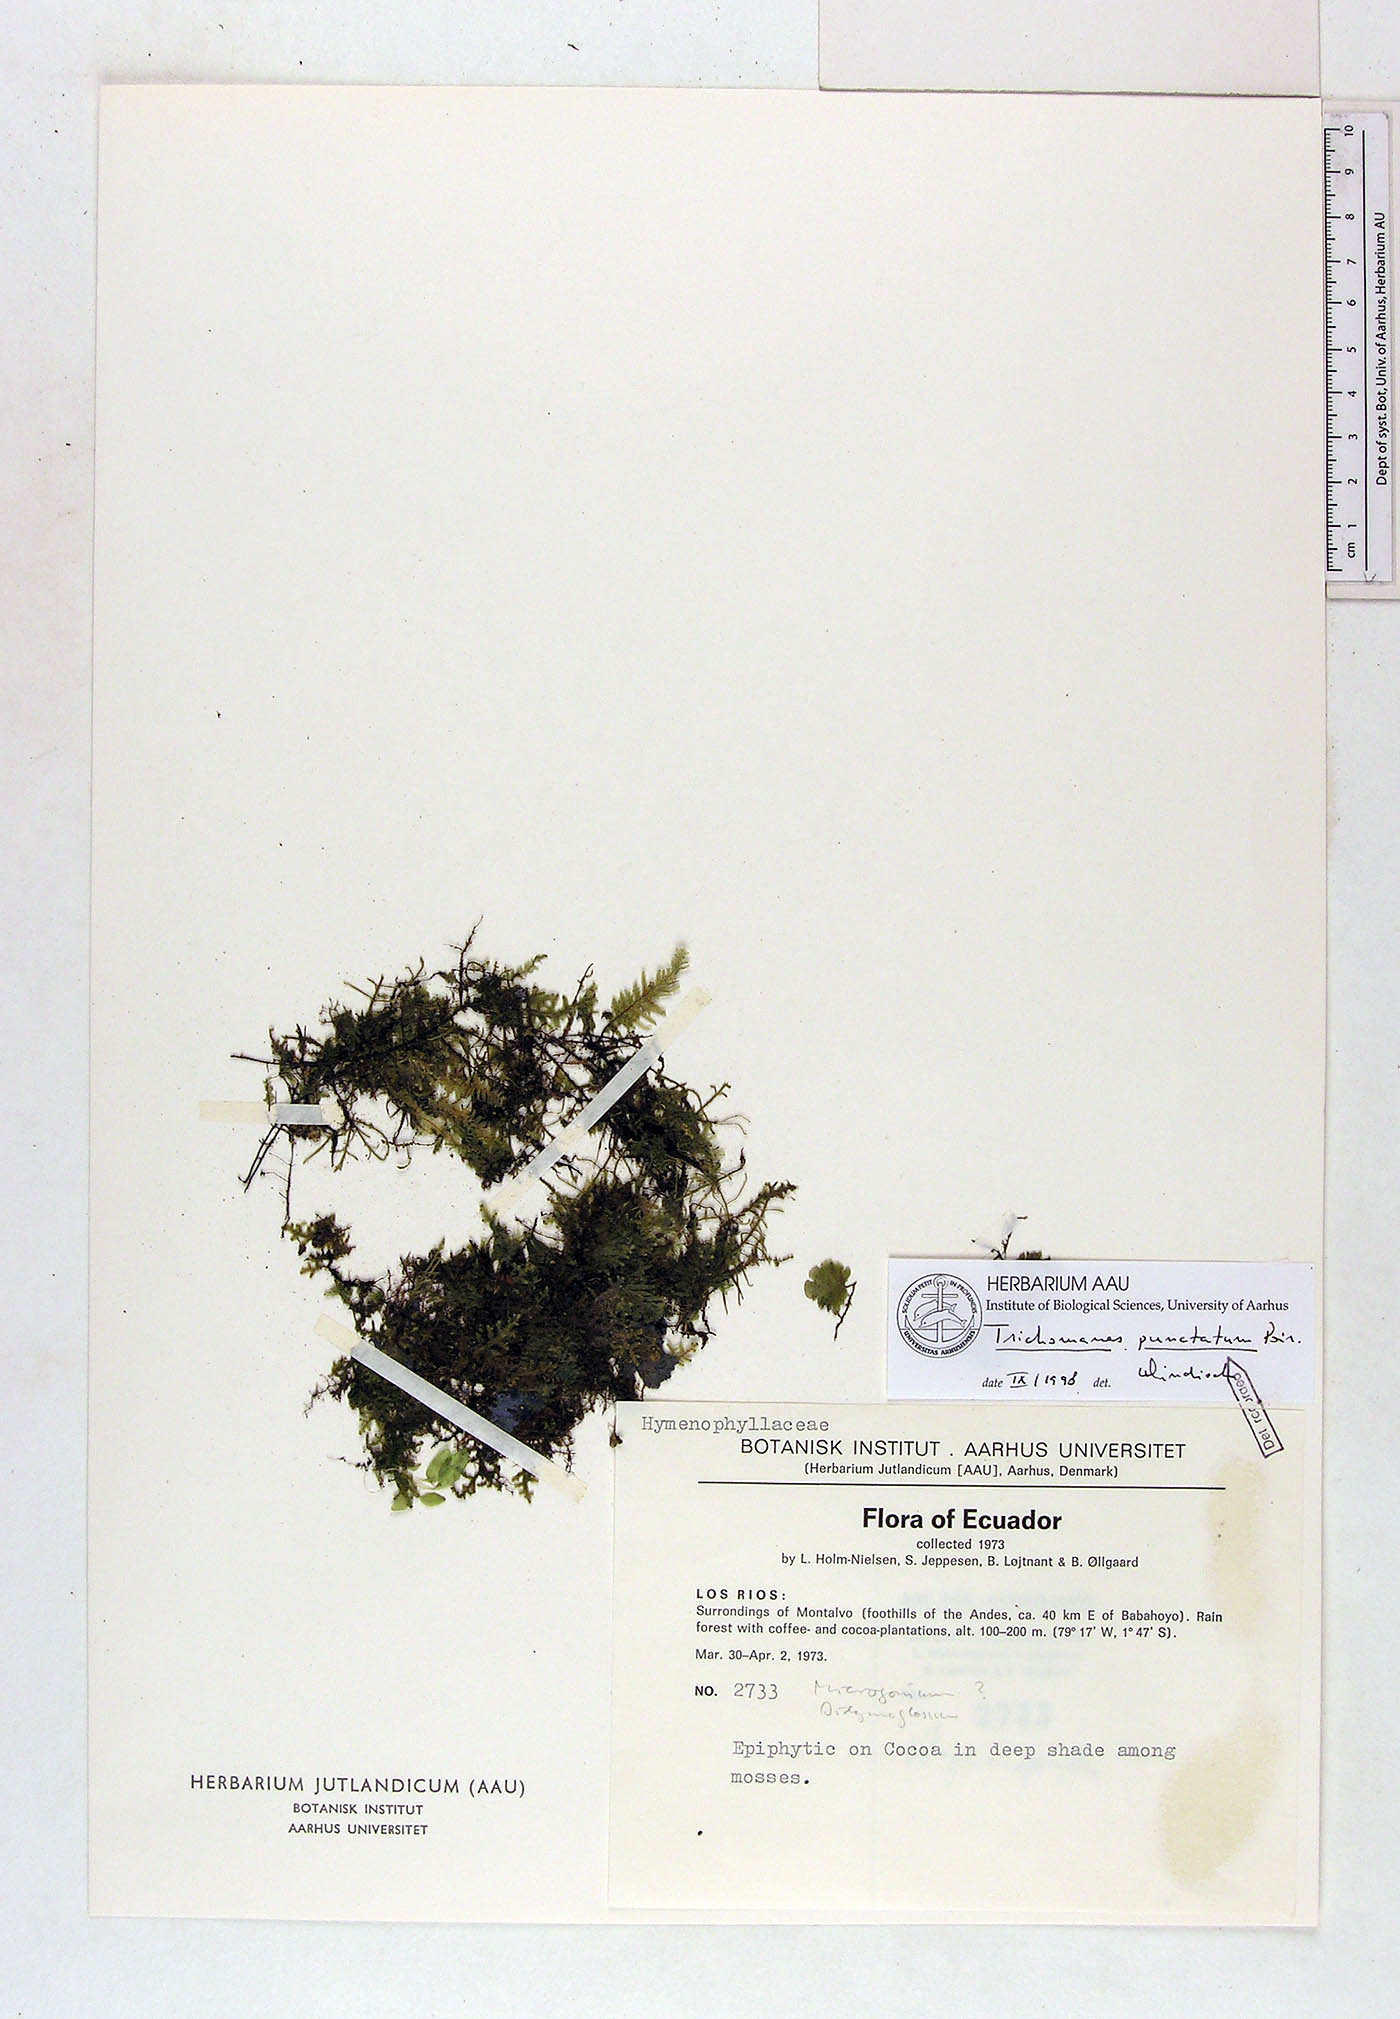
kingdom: Plantae
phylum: Tracheophyta
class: Polypodiopsida
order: Hymenophyllales
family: Hymenophyllaceae
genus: Didymoglossum
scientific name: Didymoglossum punctatum
